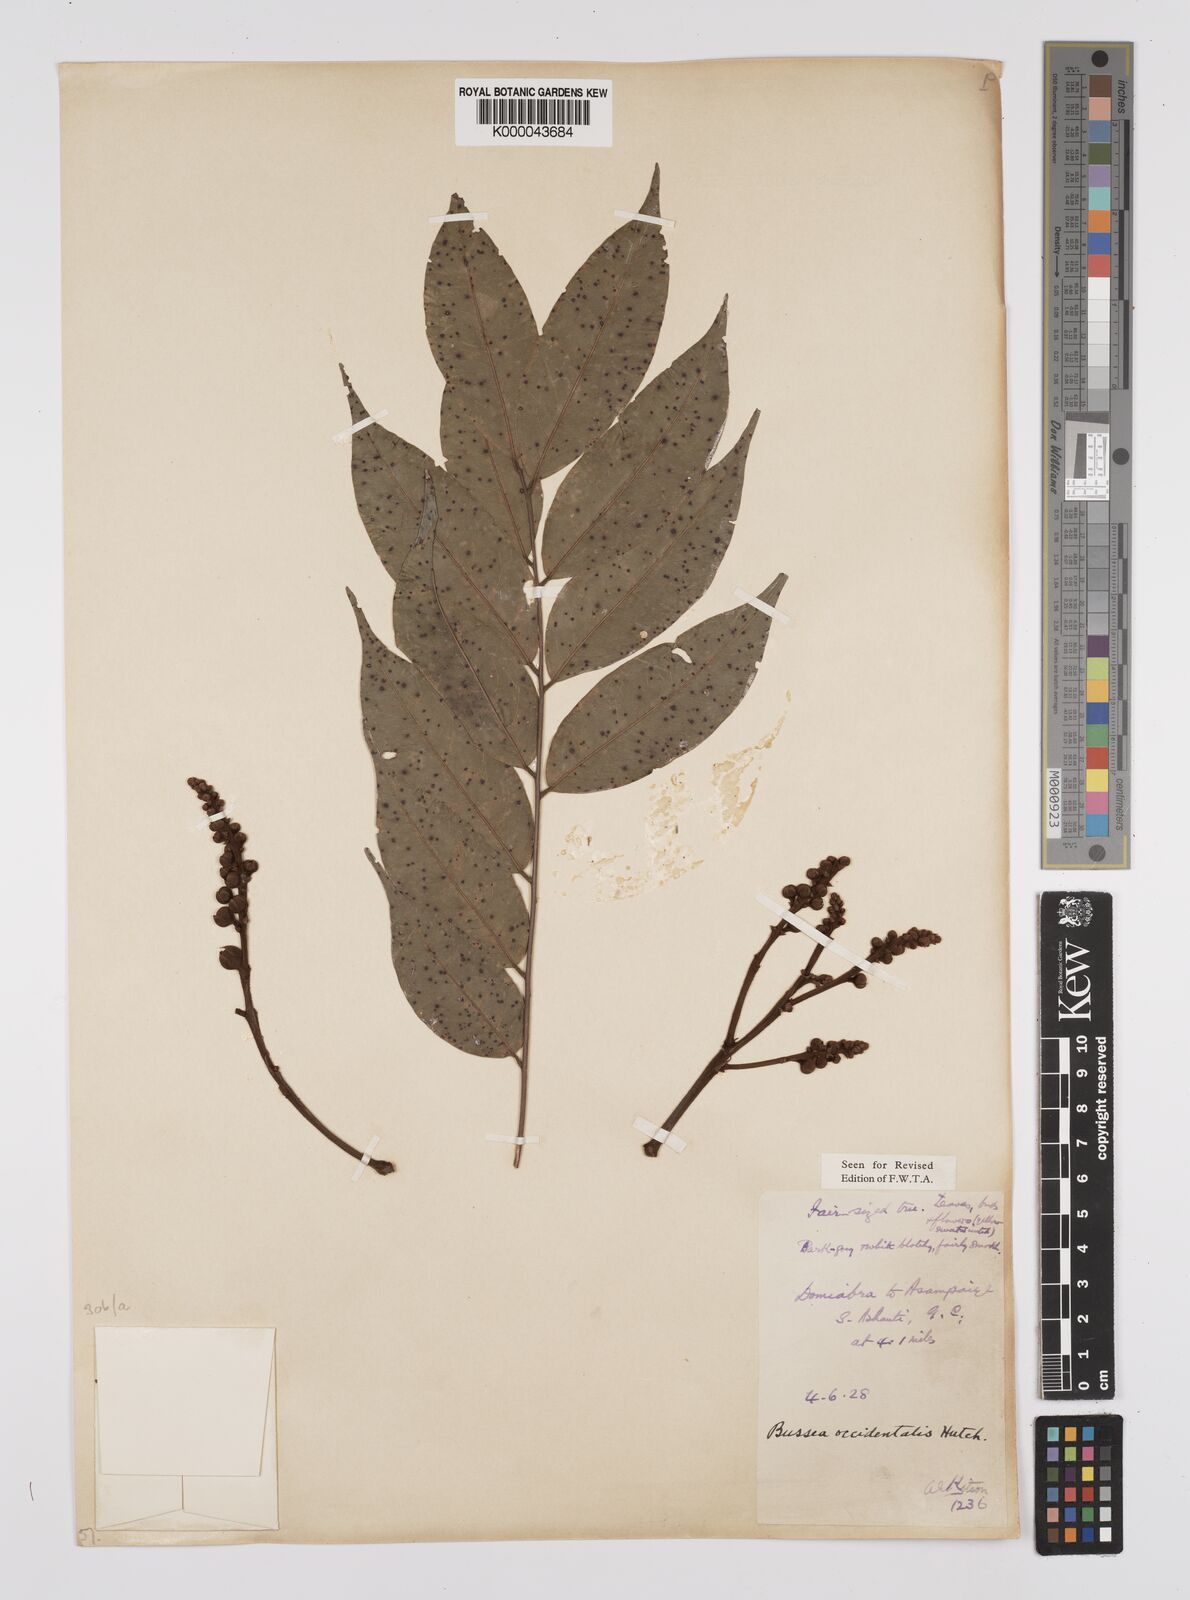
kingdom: Plantae
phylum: Tracheophyta
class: Magnoliopsida
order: Fabales
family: Fabaceae
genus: Bussea
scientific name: Bussea occidentalis
